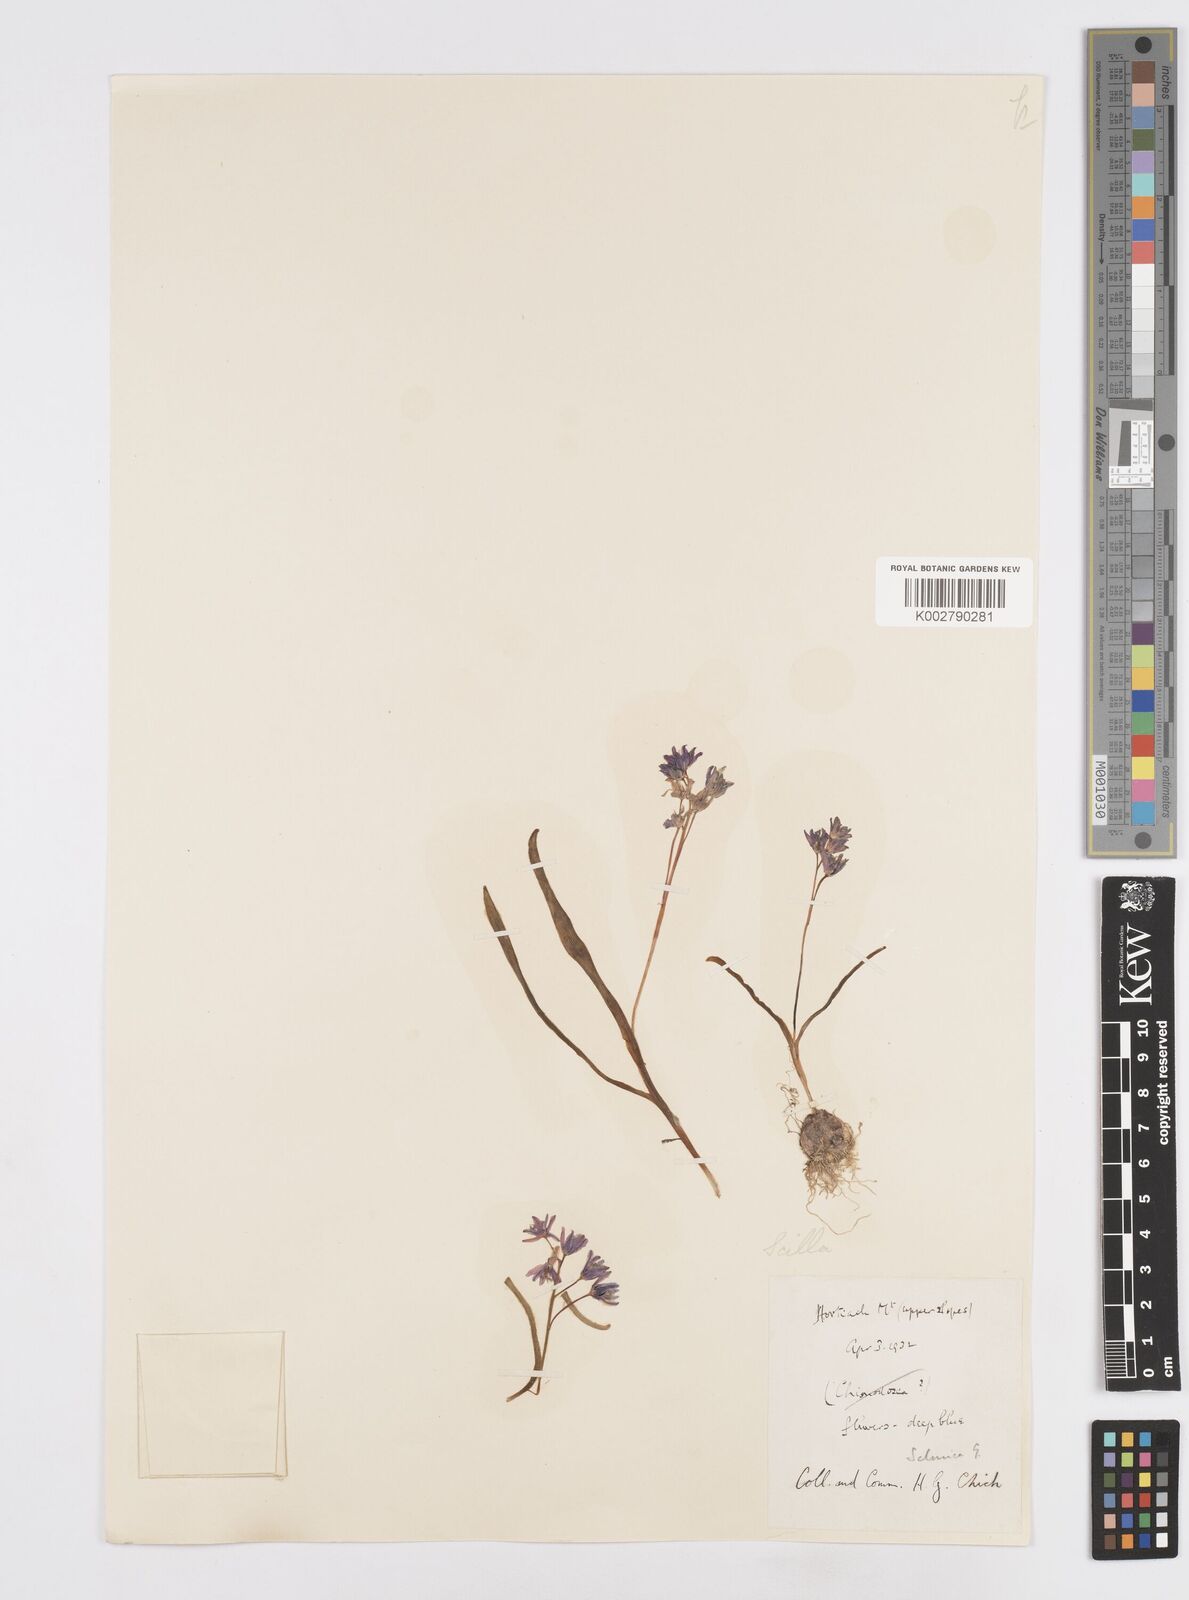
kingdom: Plantae
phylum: Tracheophyta
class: Liliopsida
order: Asparagales
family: Asparagaceae
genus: Scilla
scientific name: Scilla nivalis
